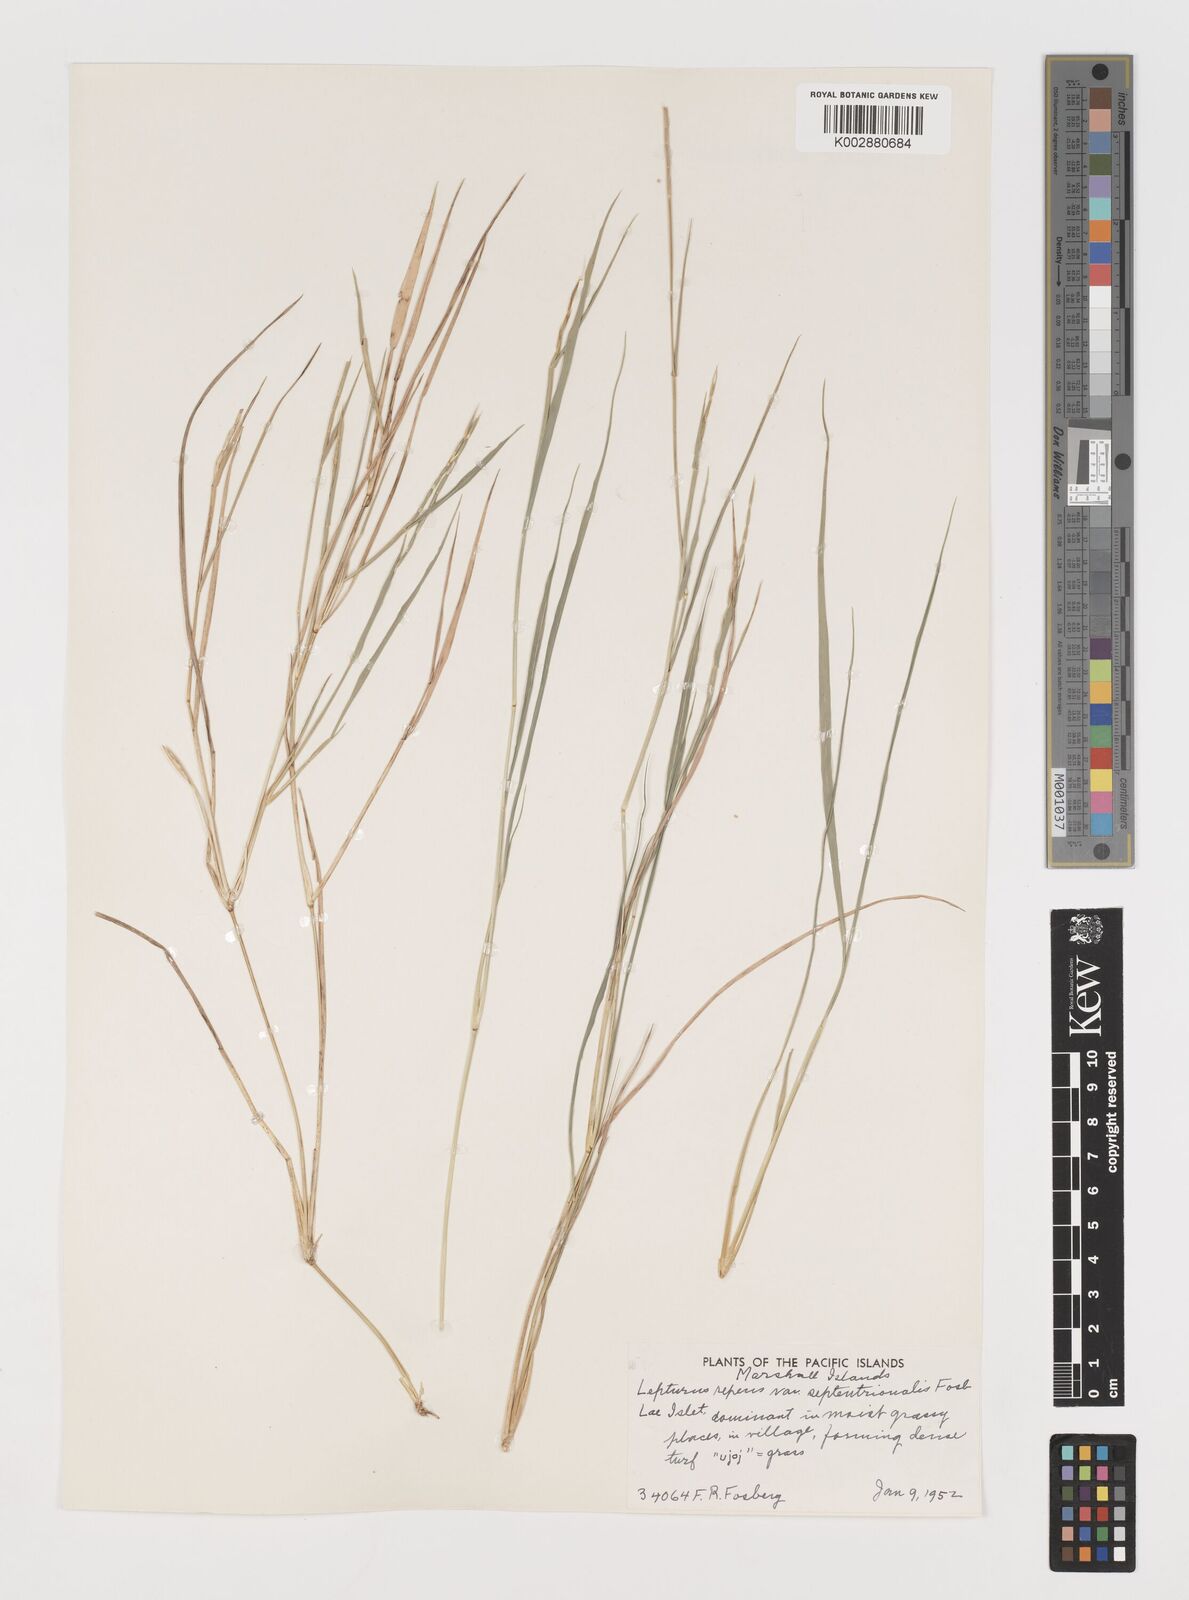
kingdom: Plantae
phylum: Tracheophyta
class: Liliopsida
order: Poales
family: Poaceae
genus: Lepturus
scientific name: Lepturus repens
